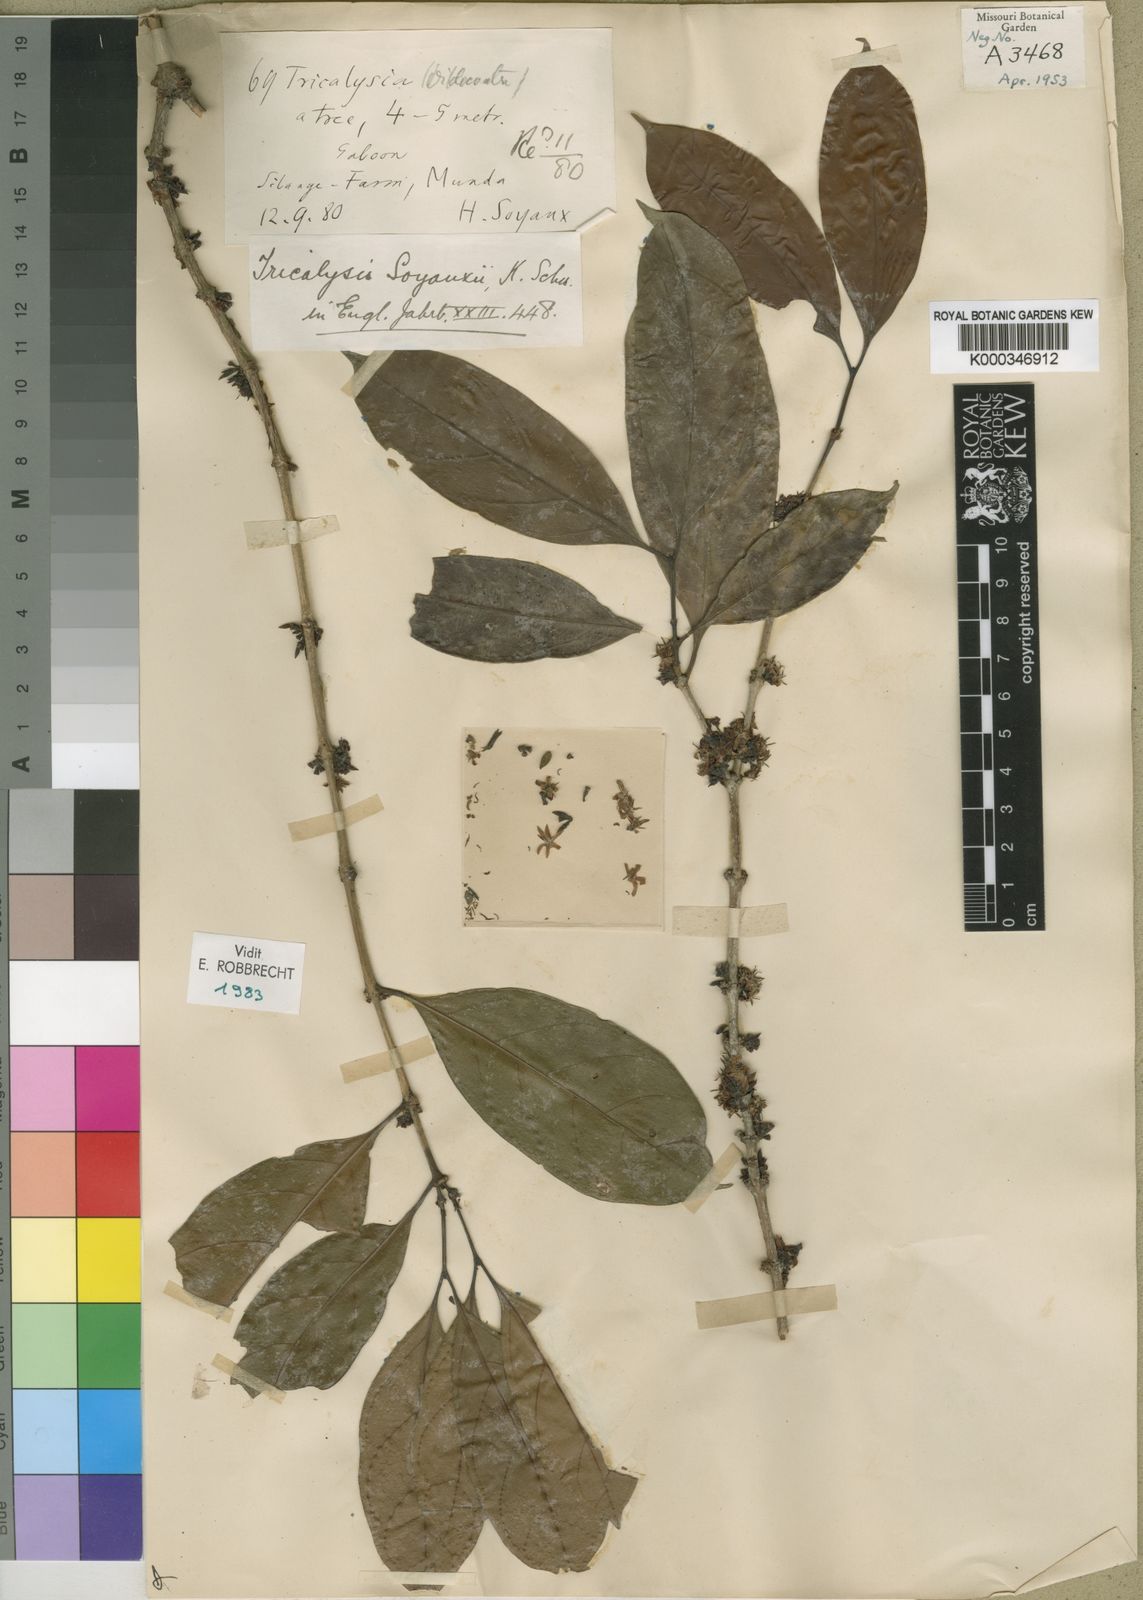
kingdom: Plantae
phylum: Tracheophyta
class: Magnoliopsida
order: Gentianales
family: Rubiaceae
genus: Tricalysia
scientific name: Tricalysia soyauxii
